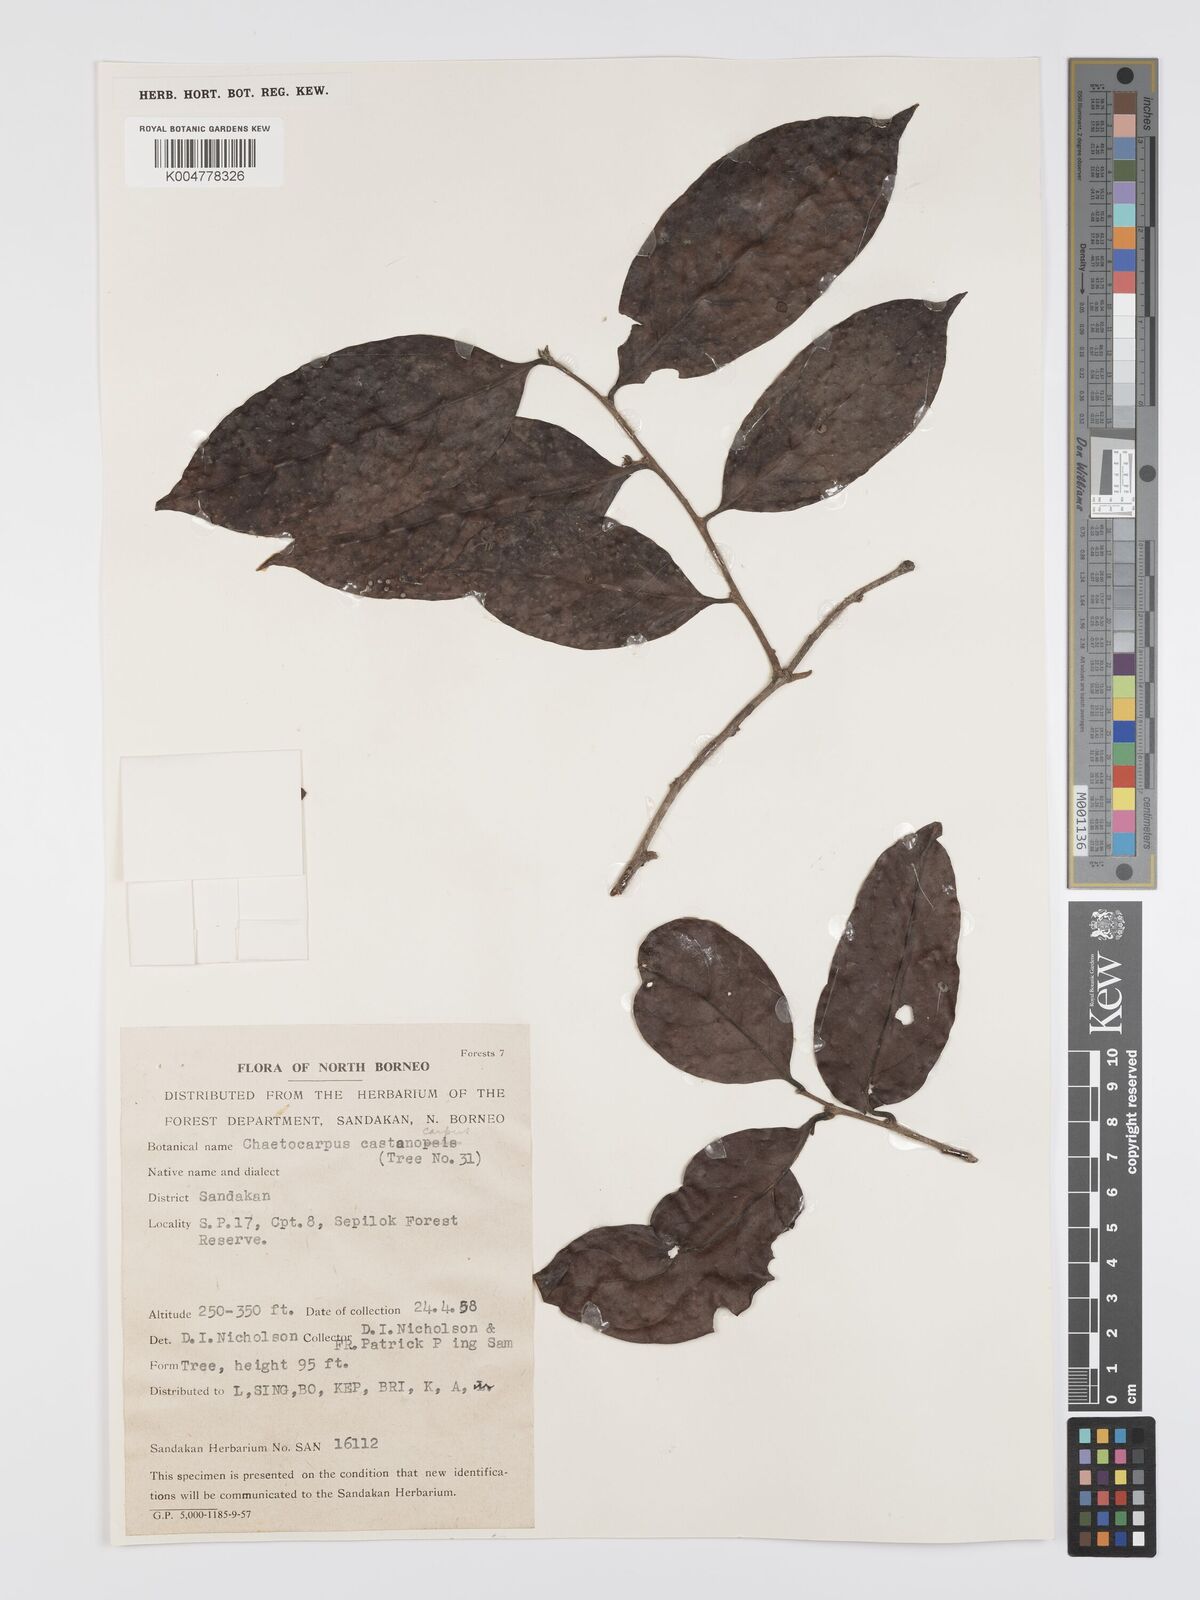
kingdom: Plantae
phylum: Tracheophyta
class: Magnoliopsida
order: Malpighiales
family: Peraceae
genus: Chaetocarpus
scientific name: Chaetocarpus castanocarpus
